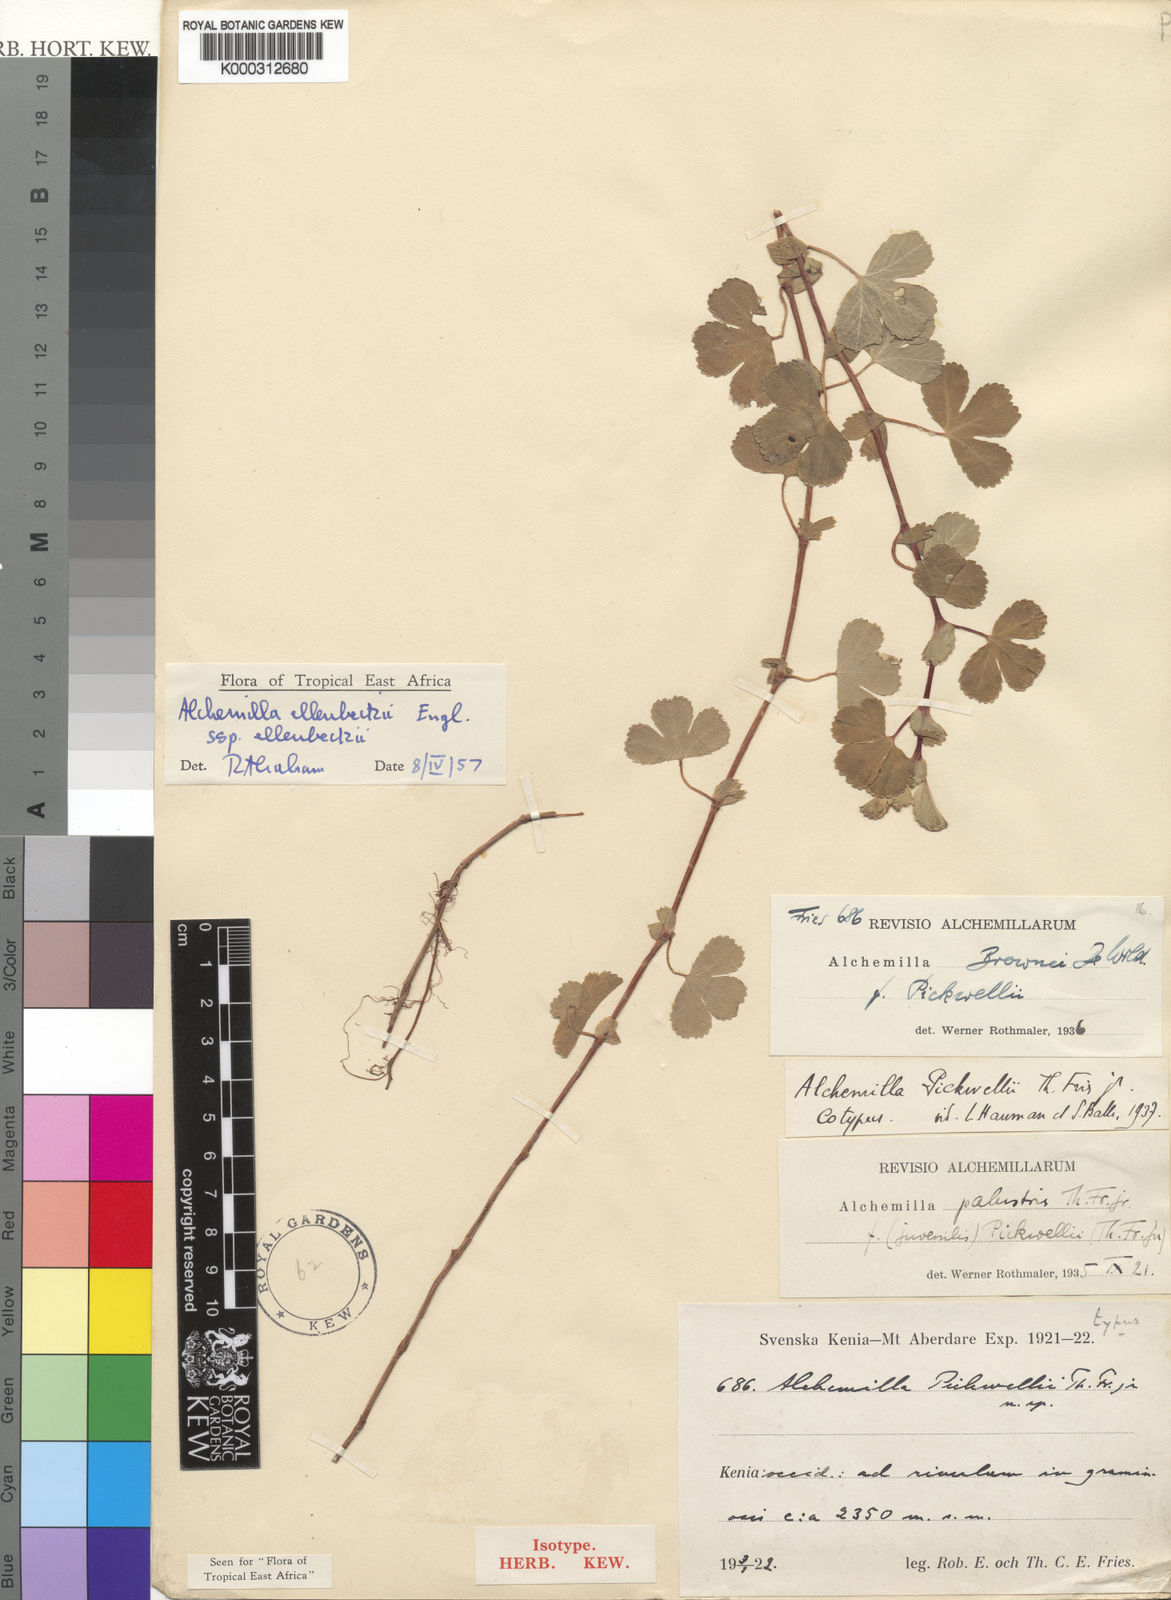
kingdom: Plantae
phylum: Tracheophyta
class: Magnoliopsida
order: Rosales
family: Rosaceae
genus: Alchemilla
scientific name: Alchemilla ellenbeckii
